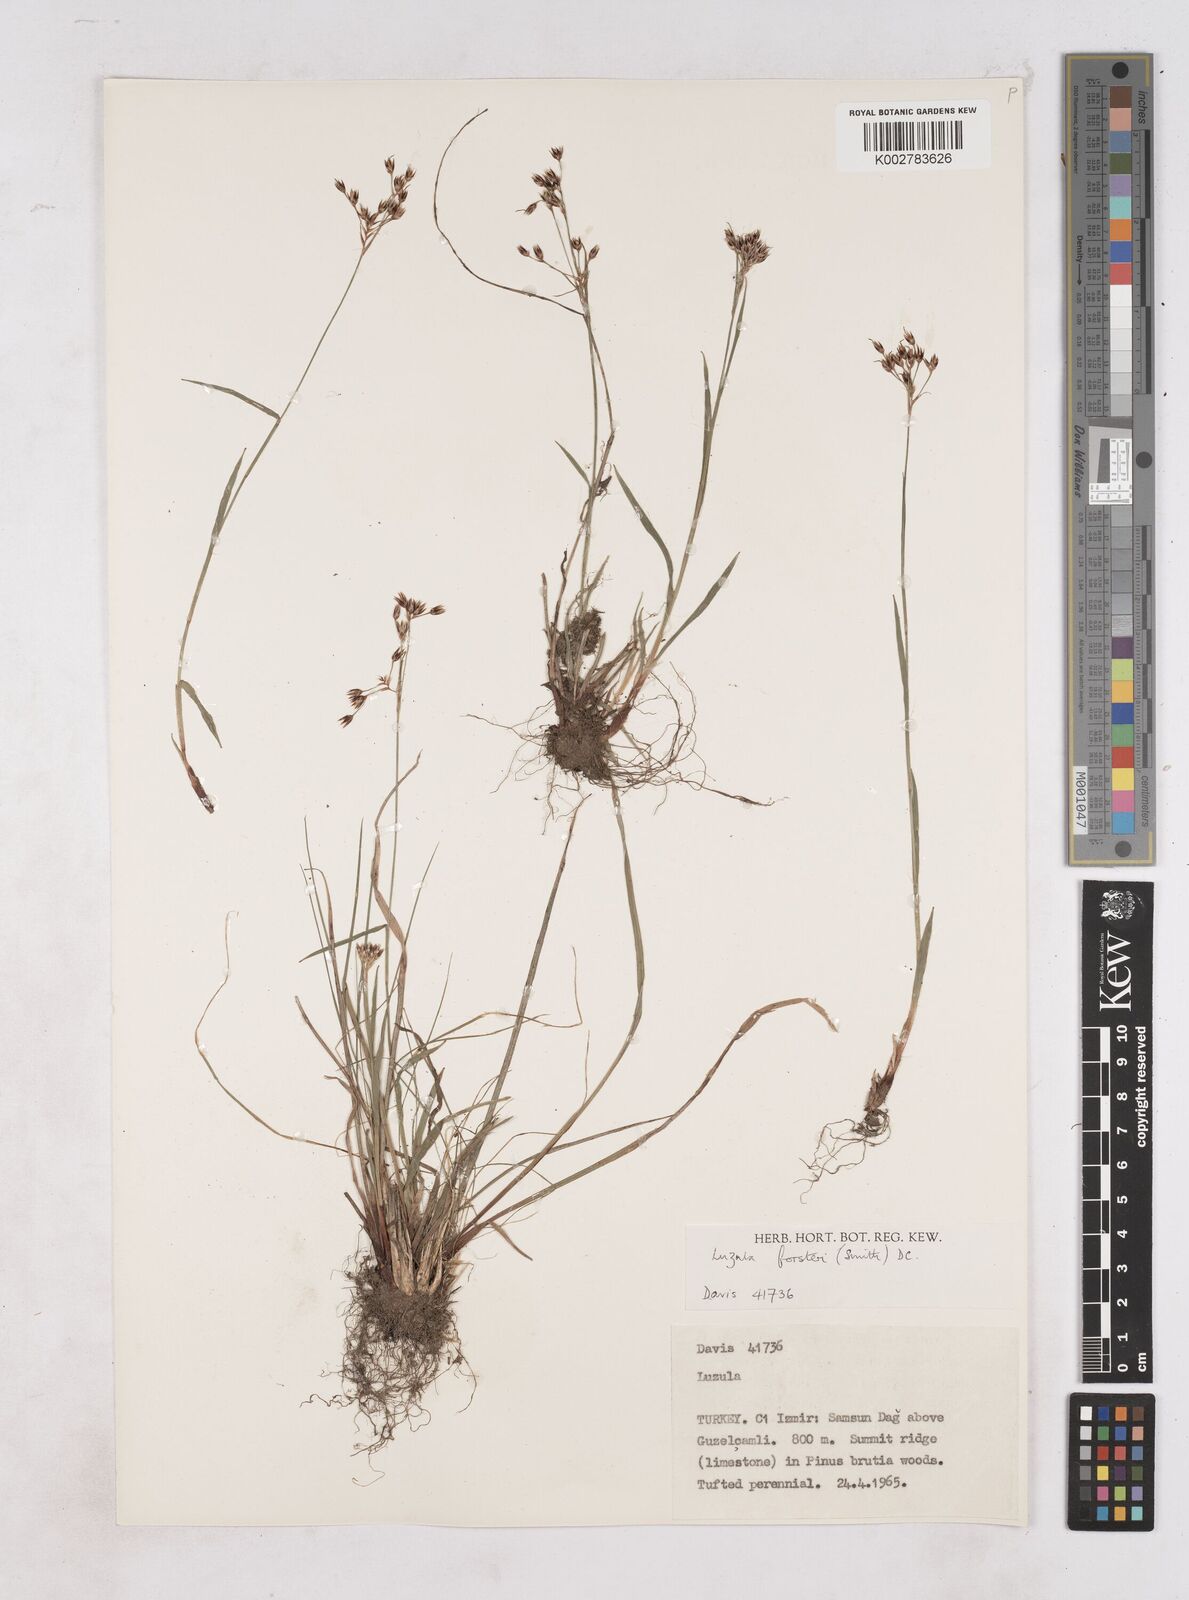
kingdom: Plantae
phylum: Tracheophyta
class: Liliopsida
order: Poales
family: Juncaceae
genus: Luzula
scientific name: Luzula forsteri
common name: Southern wood-rush
